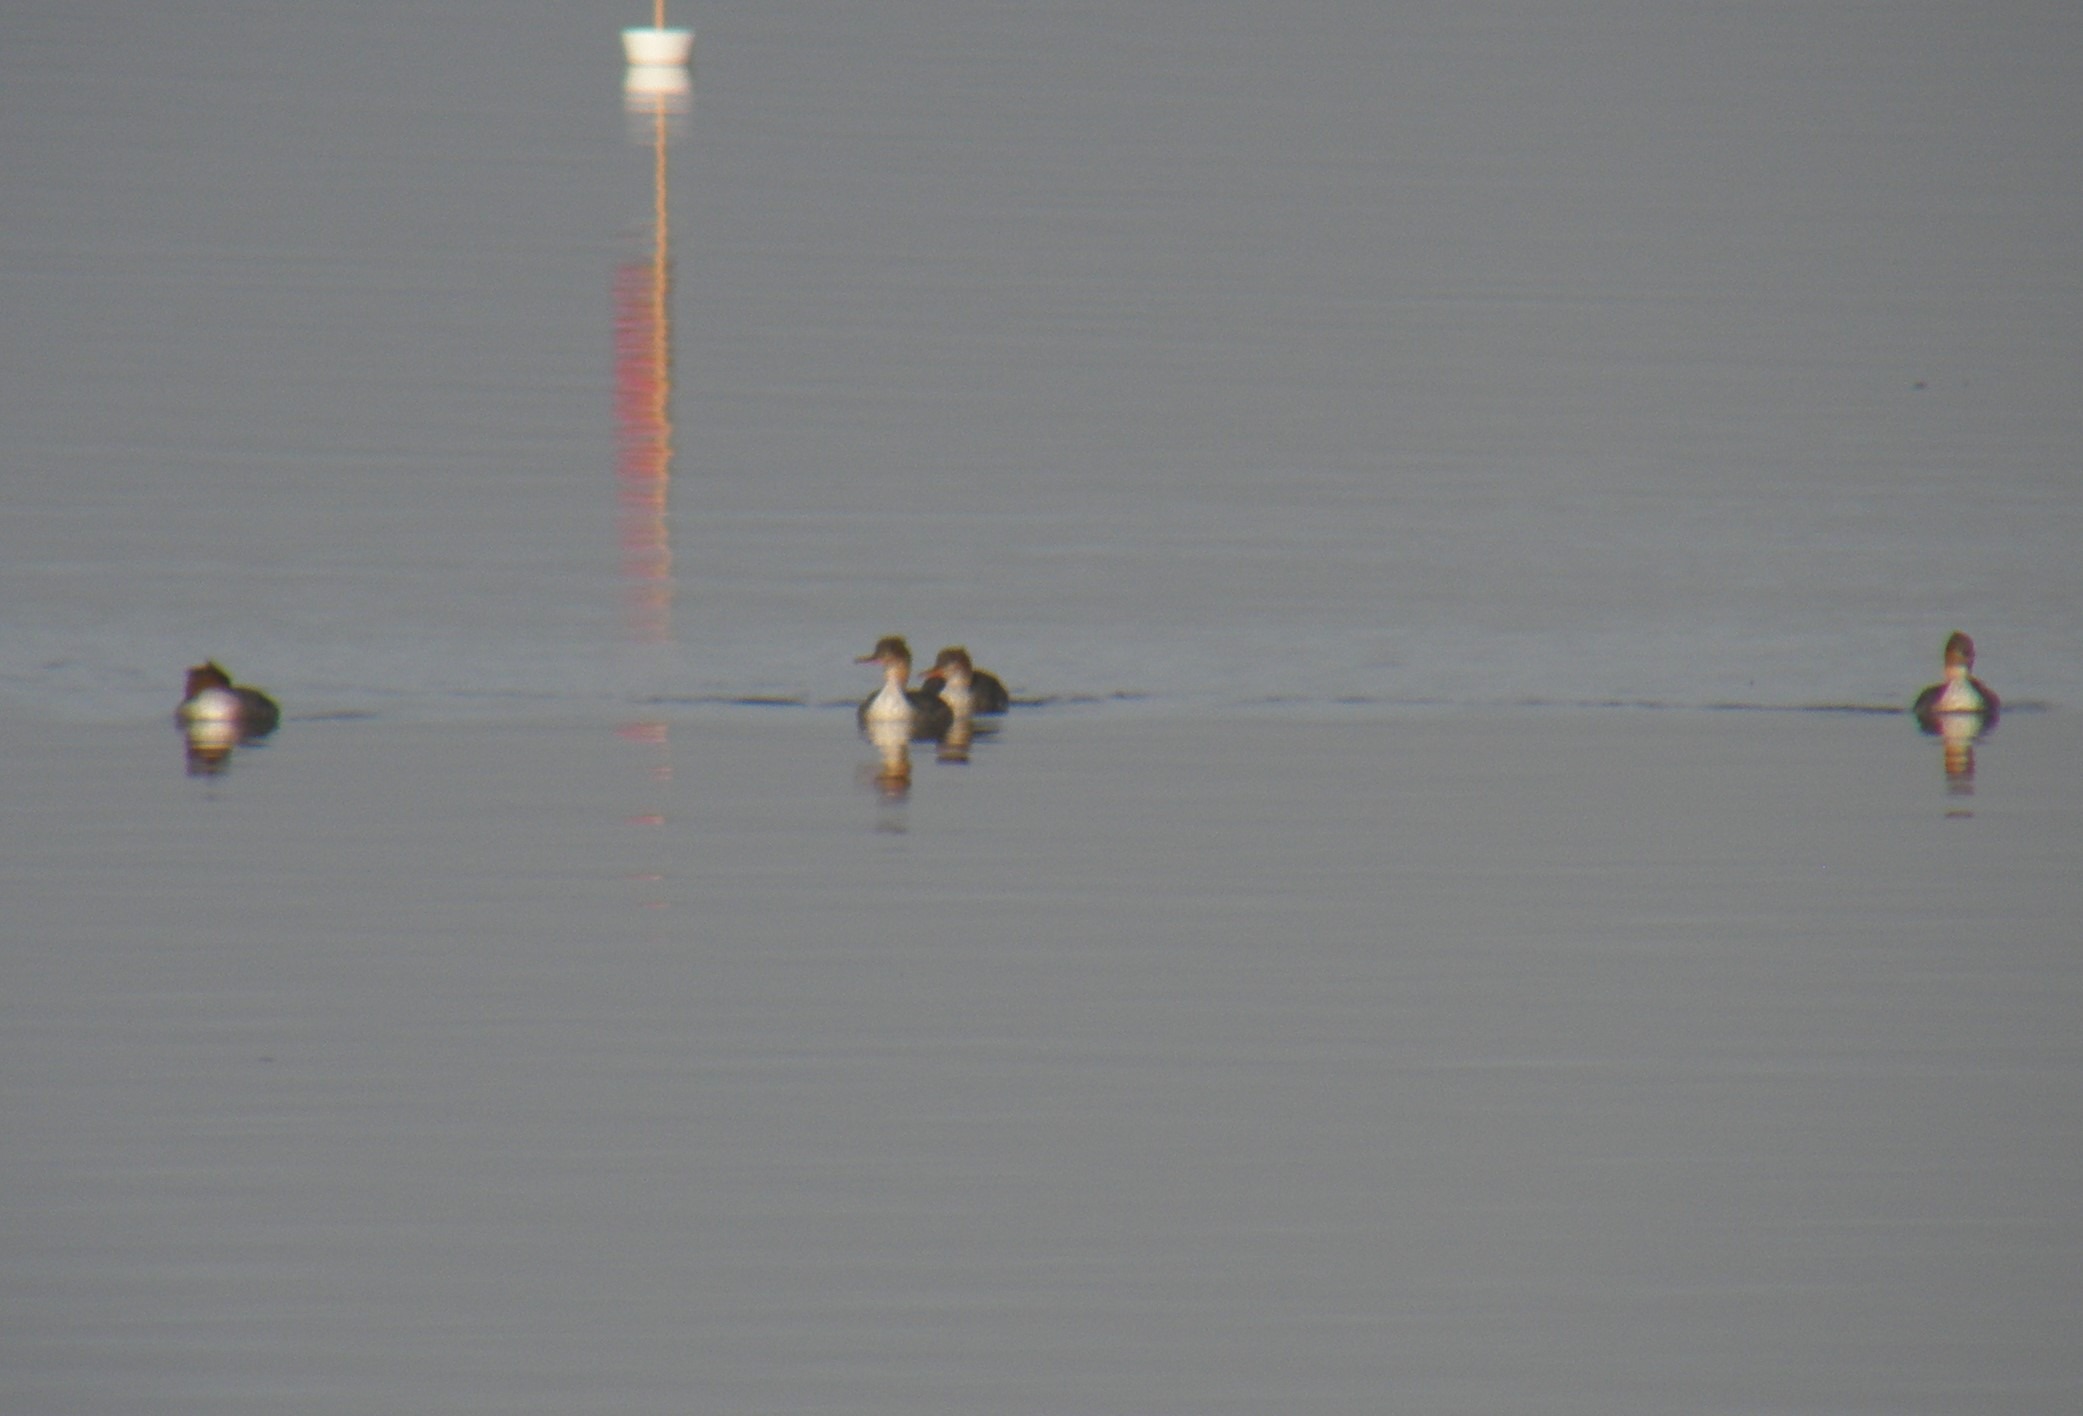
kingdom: Animalia
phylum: Chordata
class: Aves
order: Anseriformes
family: Anatidae
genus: Mergus
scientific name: Mergus serrator
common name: Toppet skallesluger
